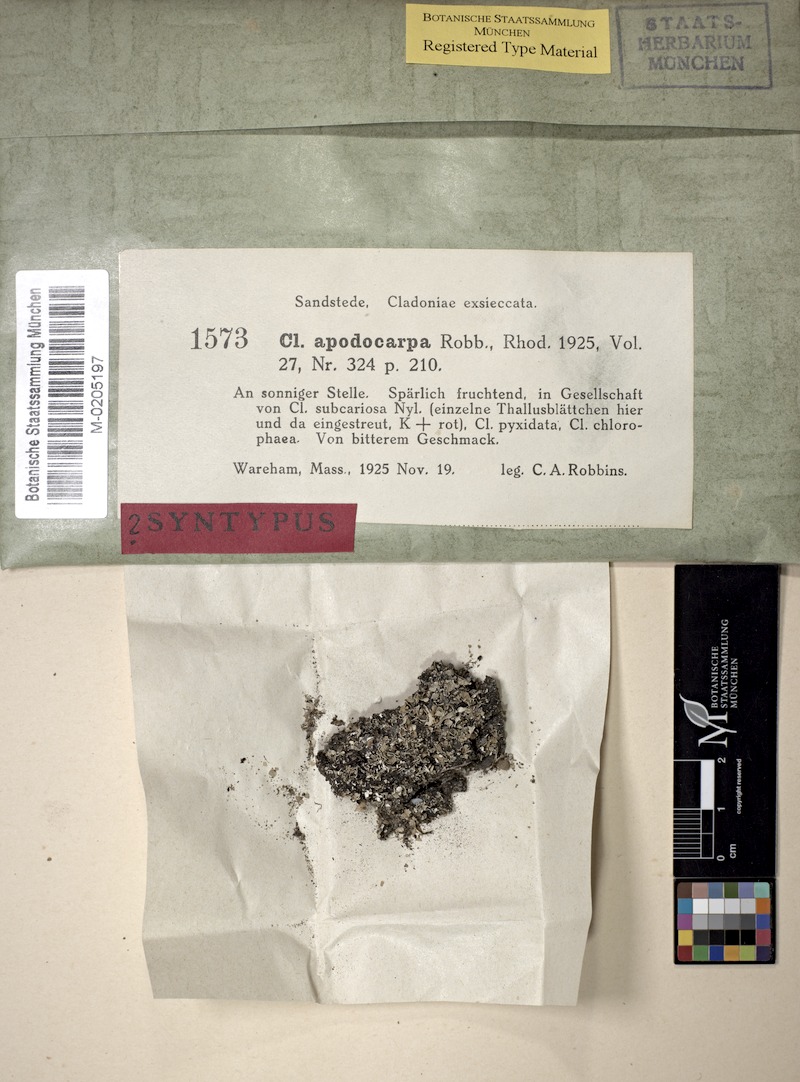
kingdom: Fungi
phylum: Ascomycota
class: Lecanoromycetes
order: Lecanorales
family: Cladoniaceae
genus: Cladonia
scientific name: Cladonia apodocarpa
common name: Stalkless cladonia
